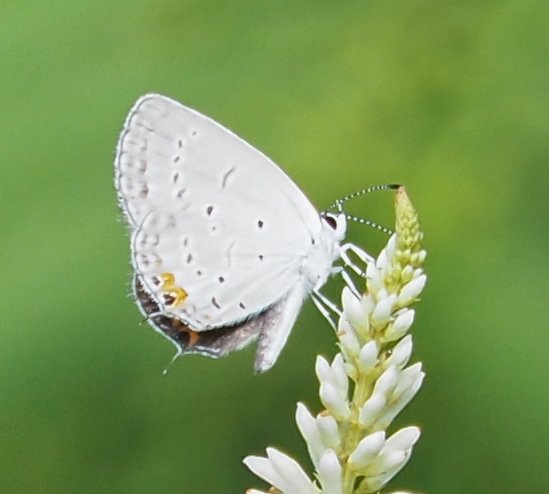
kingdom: Animalia
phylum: Arthropoda
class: Insecta
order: Lepidoptera
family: Lycaenidae
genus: Elkalyce
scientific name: Elkalyce comyntas
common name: Eastern Tailed-Blue
